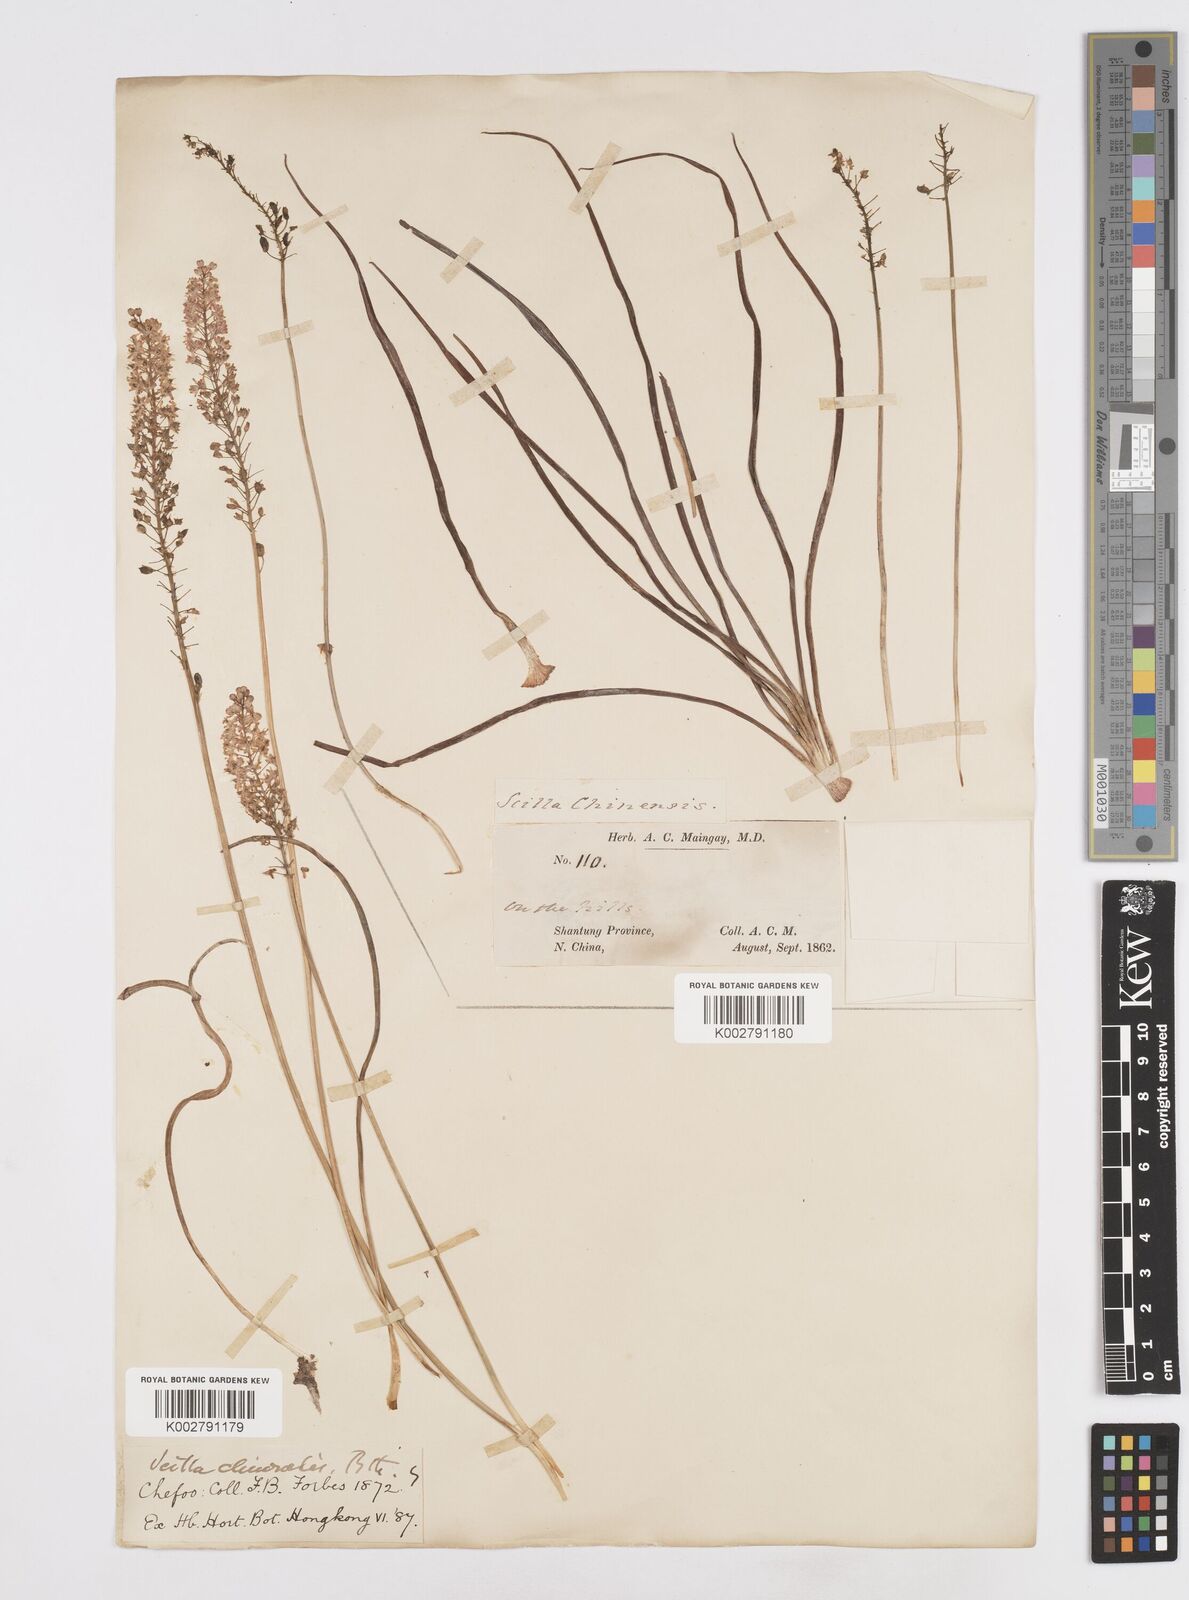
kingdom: Plantae
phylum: Tracheophyta
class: Liliopsida
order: Asparagales
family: Asparagaceae
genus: Barnardia
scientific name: Barnardia japonica
